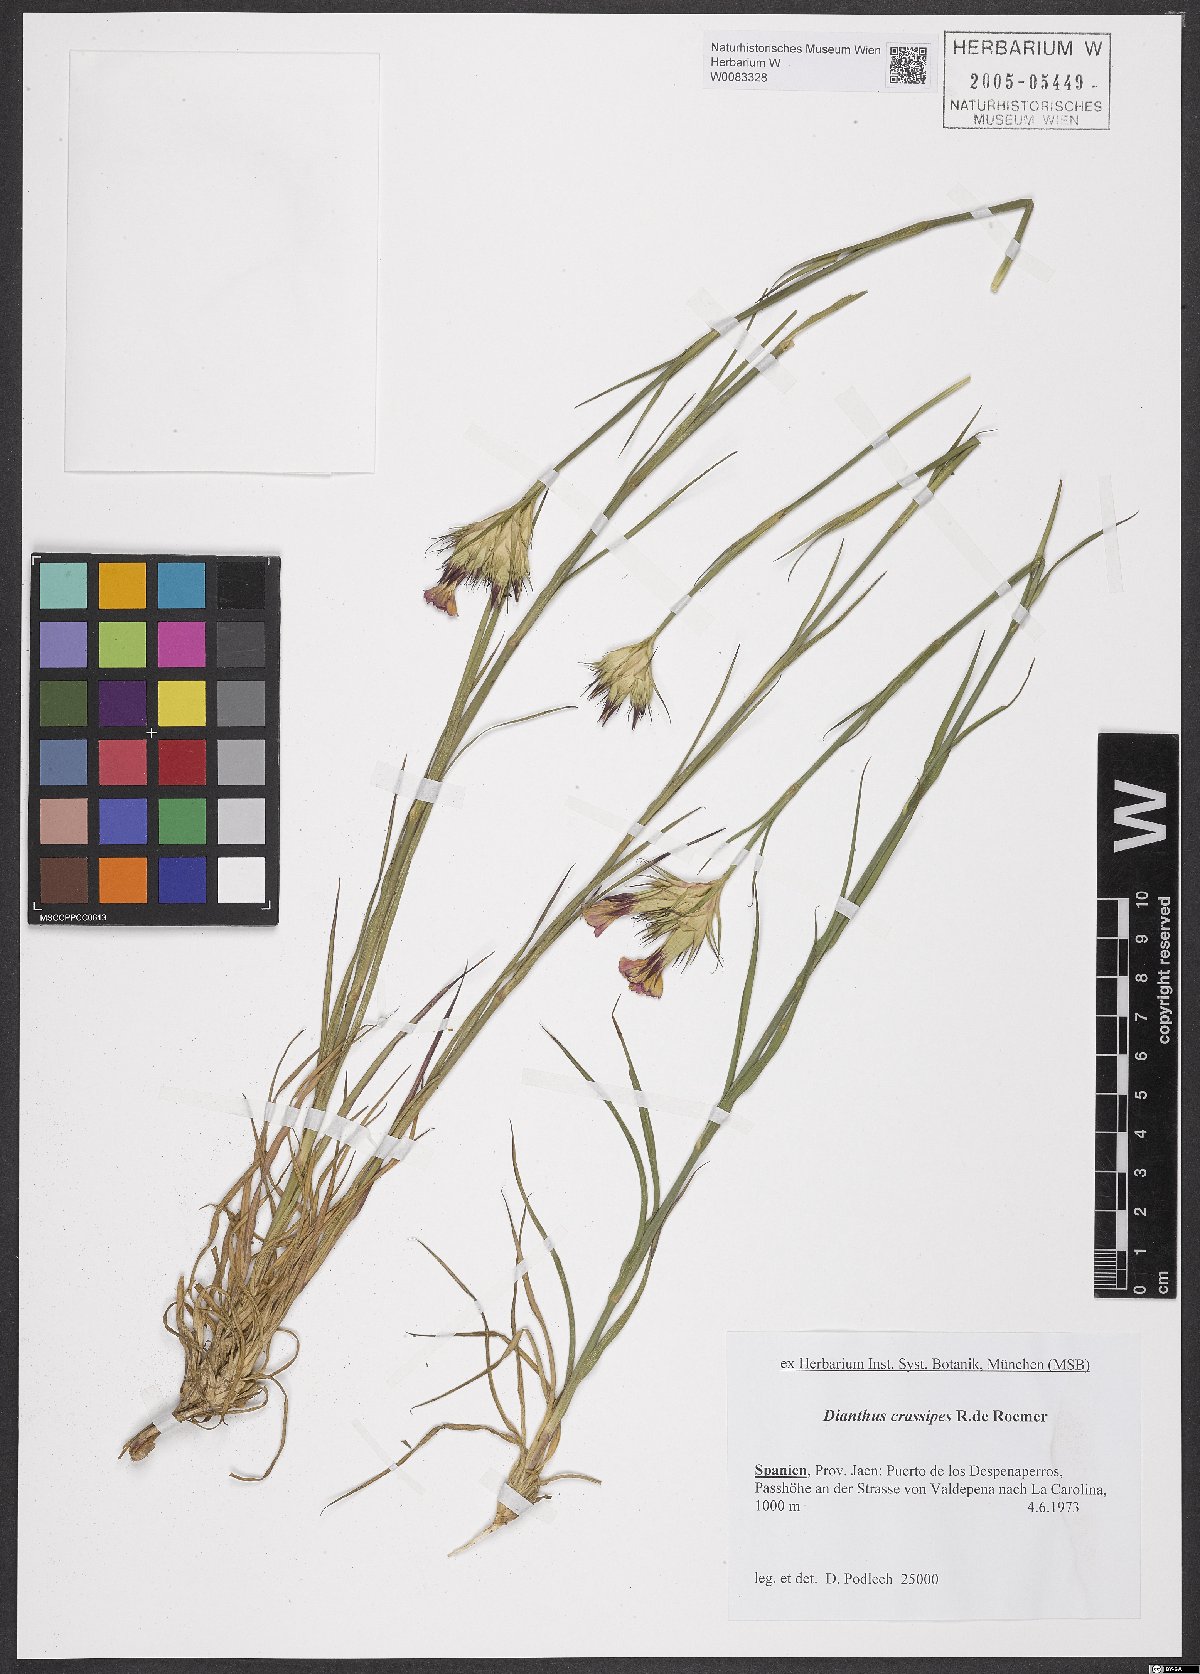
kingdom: Plantae
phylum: Tracheophyta
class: Magnoliopsida
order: Caryophyllales
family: Caryophyllaceae
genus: Dianthus
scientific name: Dianthus crassipes
